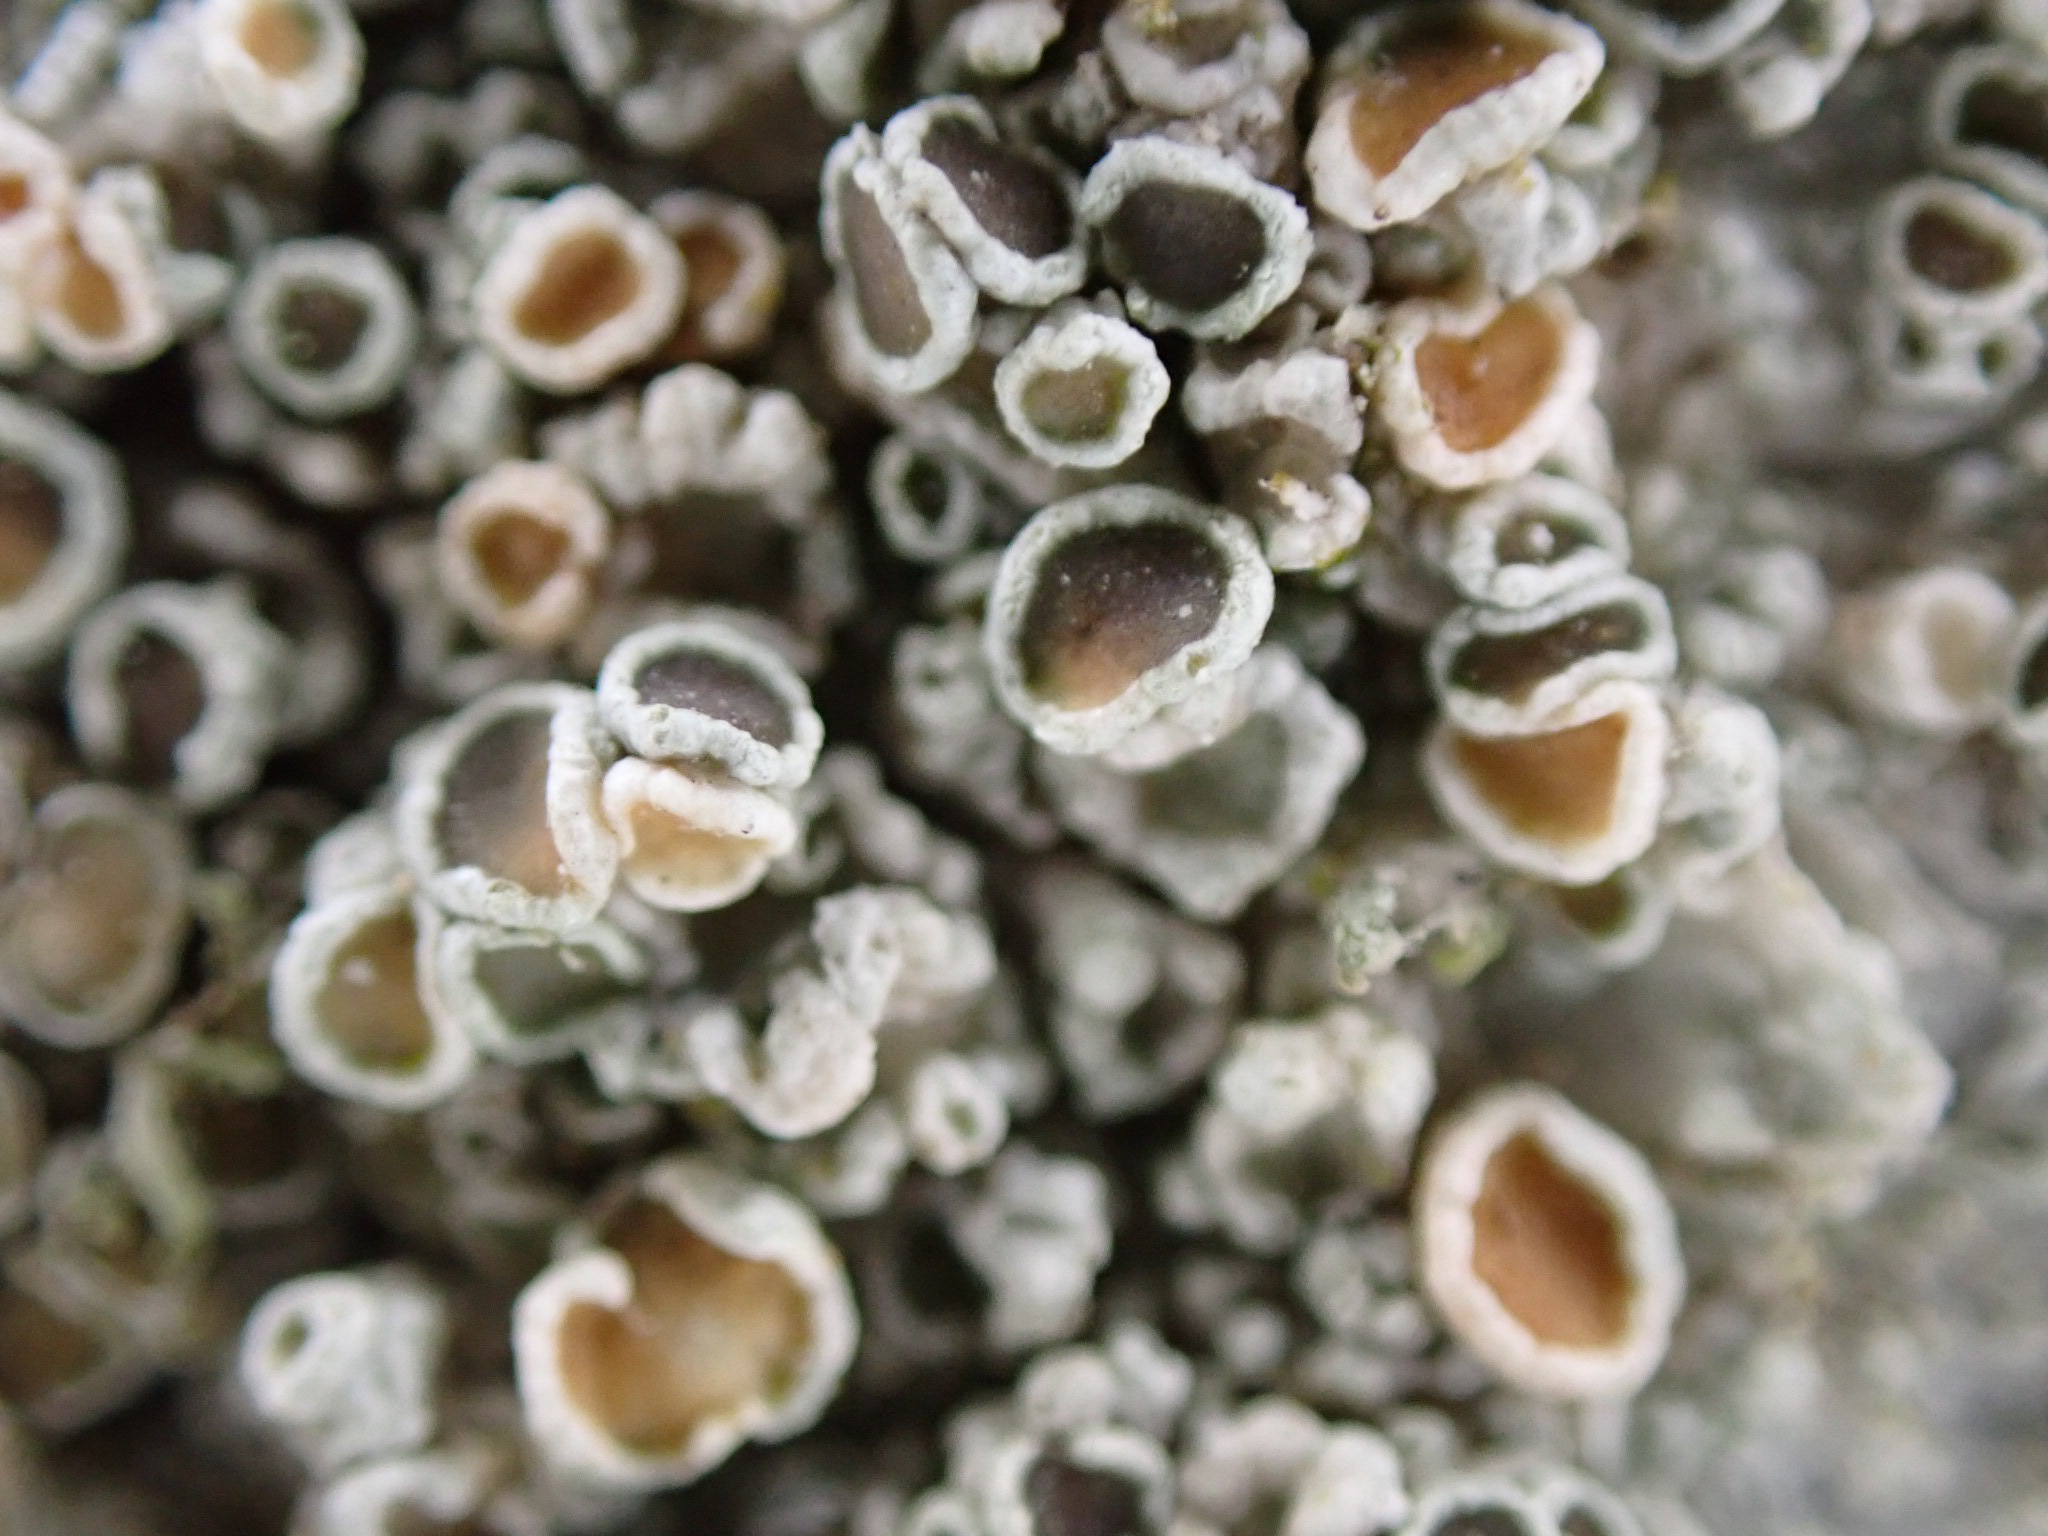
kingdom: Fungi
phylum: Ascomycota
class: Lecanoromycetes
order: Lecanorales
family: Lecanoraceae
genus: Lecanora
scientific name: Lecanora chlarotera
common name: brun kantskivelav
